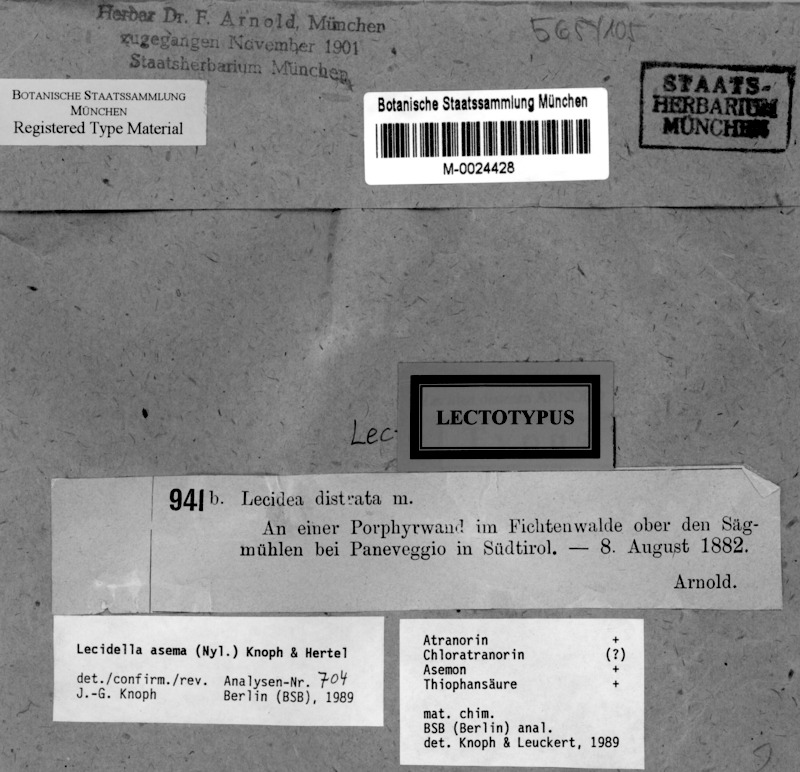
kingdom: Fungi
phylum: Ascomycota
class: Lecanoromycetes
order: Lecanorales
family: Lecanoraceae
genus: Lecidella
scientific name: Lecidella asema
